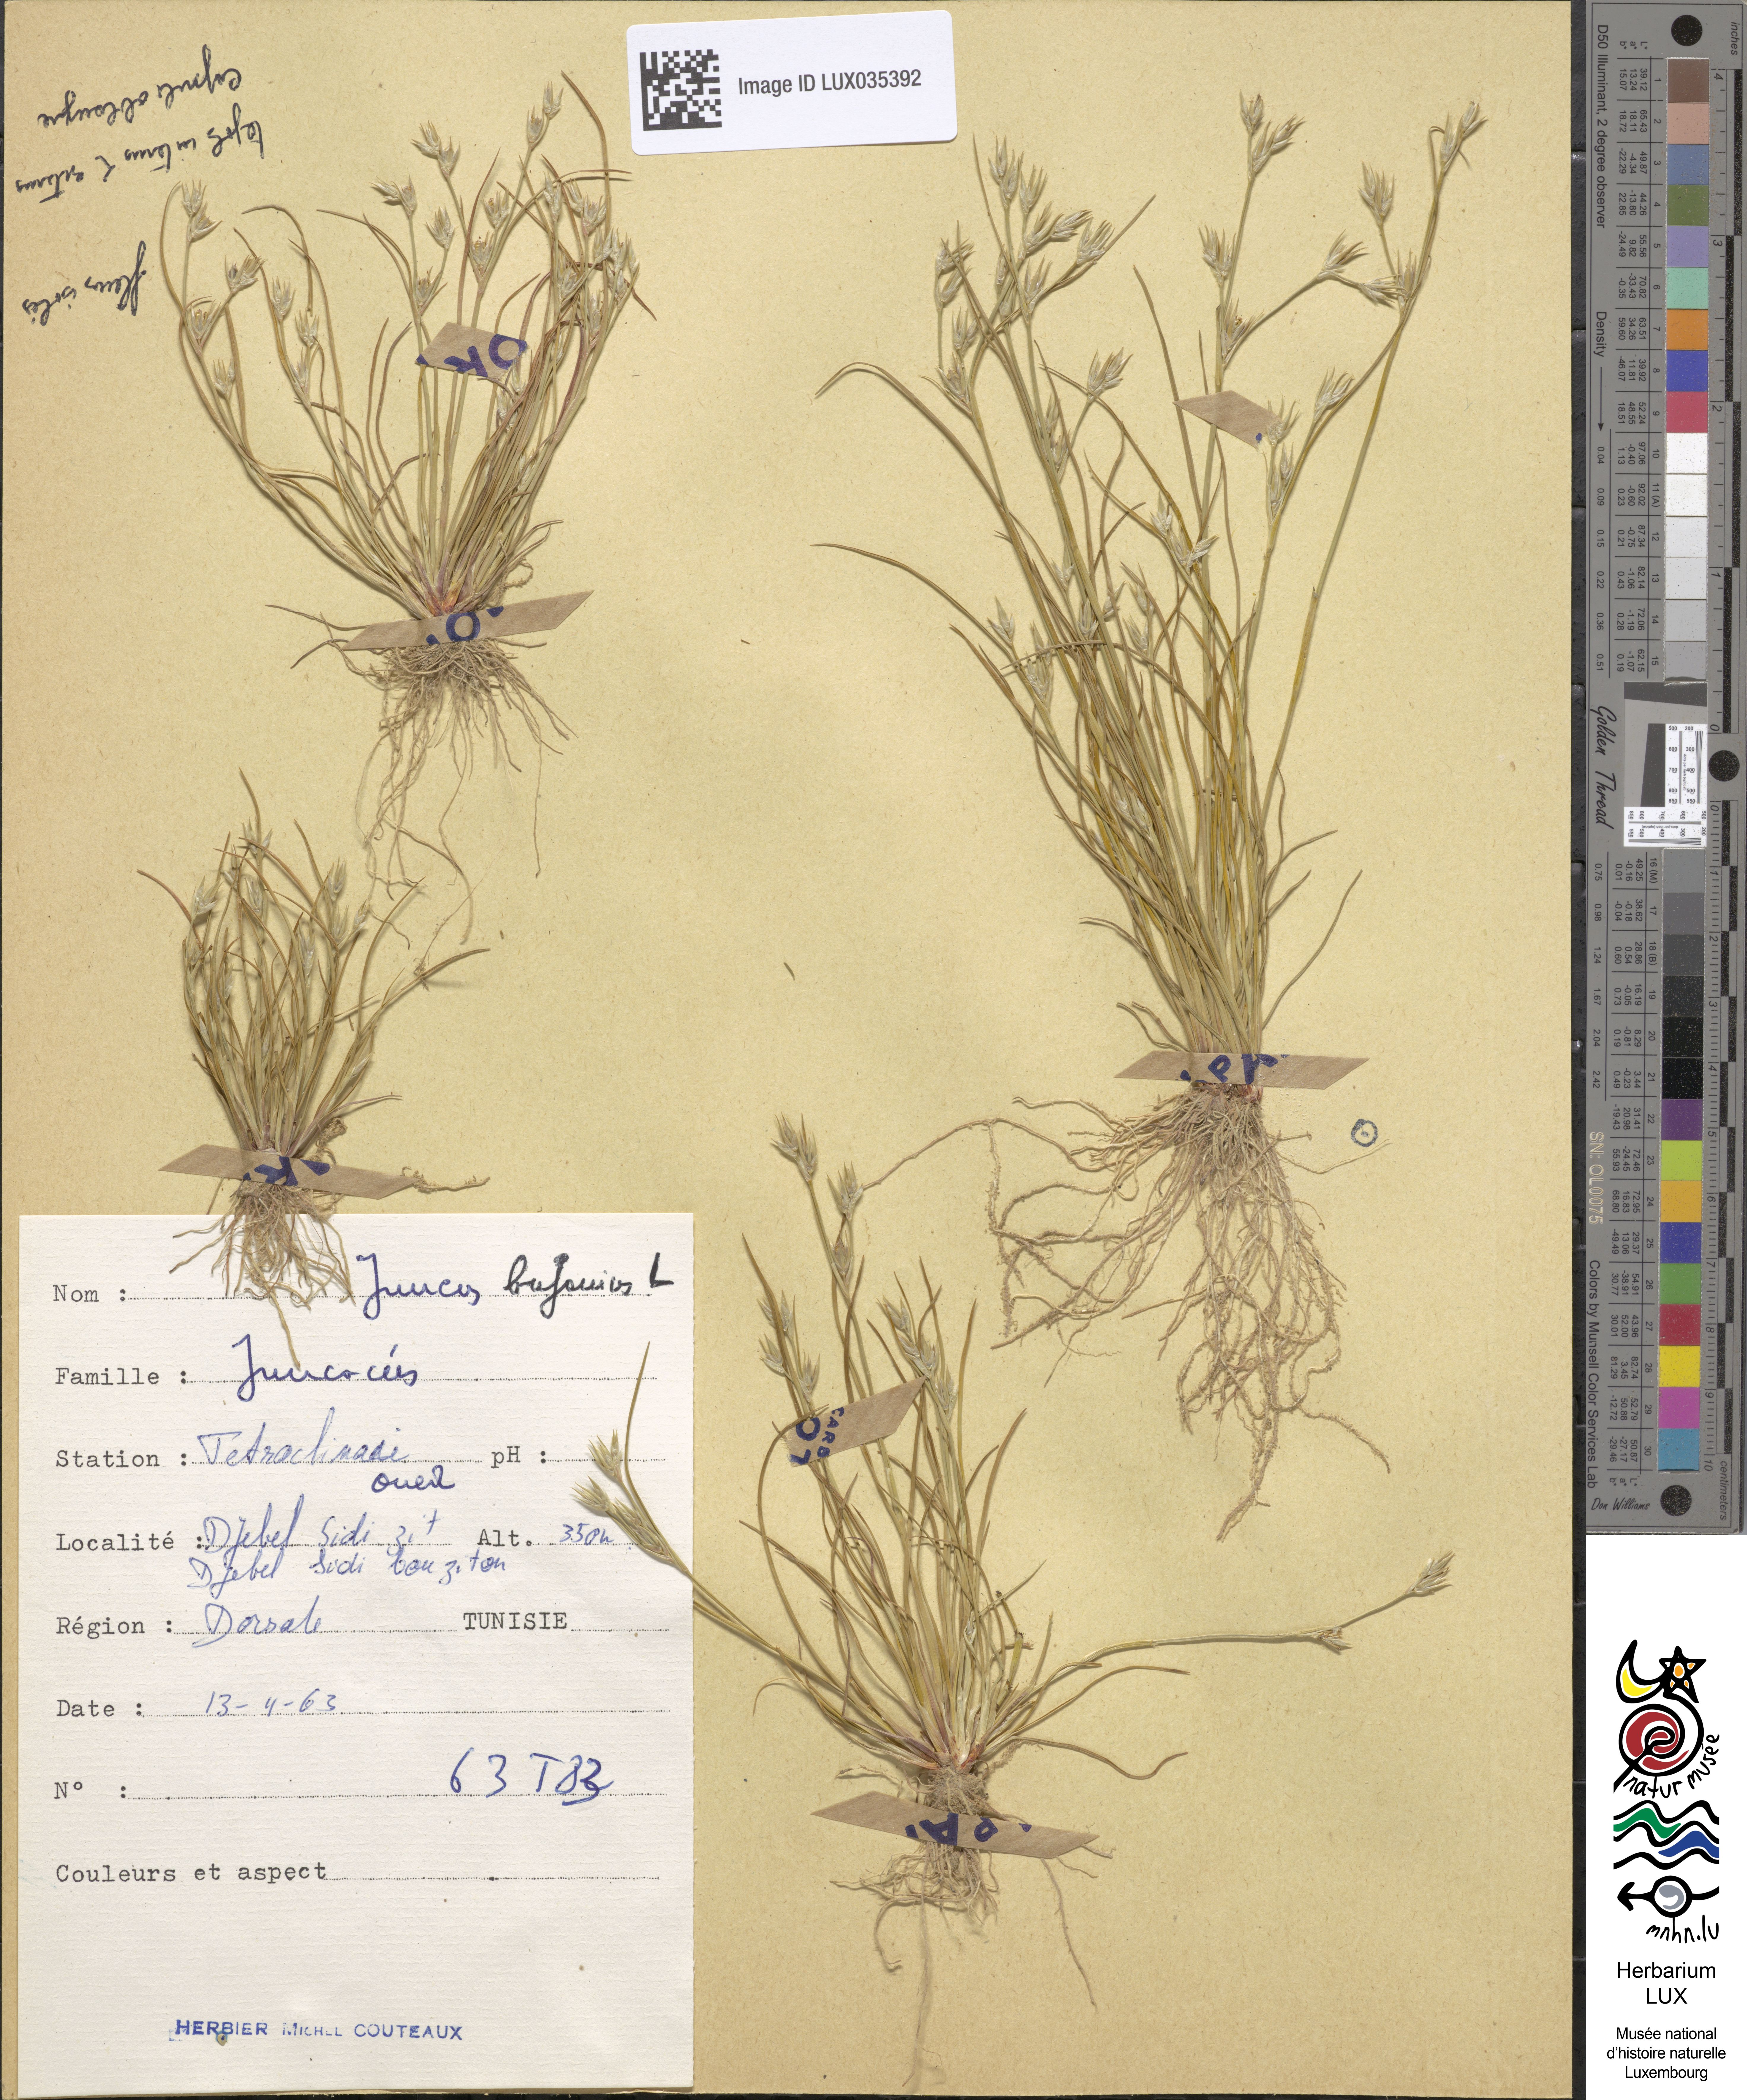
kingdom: Plantae
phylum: Tracheophyta
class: Liliopsida
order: Poales
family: Juncaceae
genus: Juncus
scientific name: Juncus bufonius
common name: Toad rush
